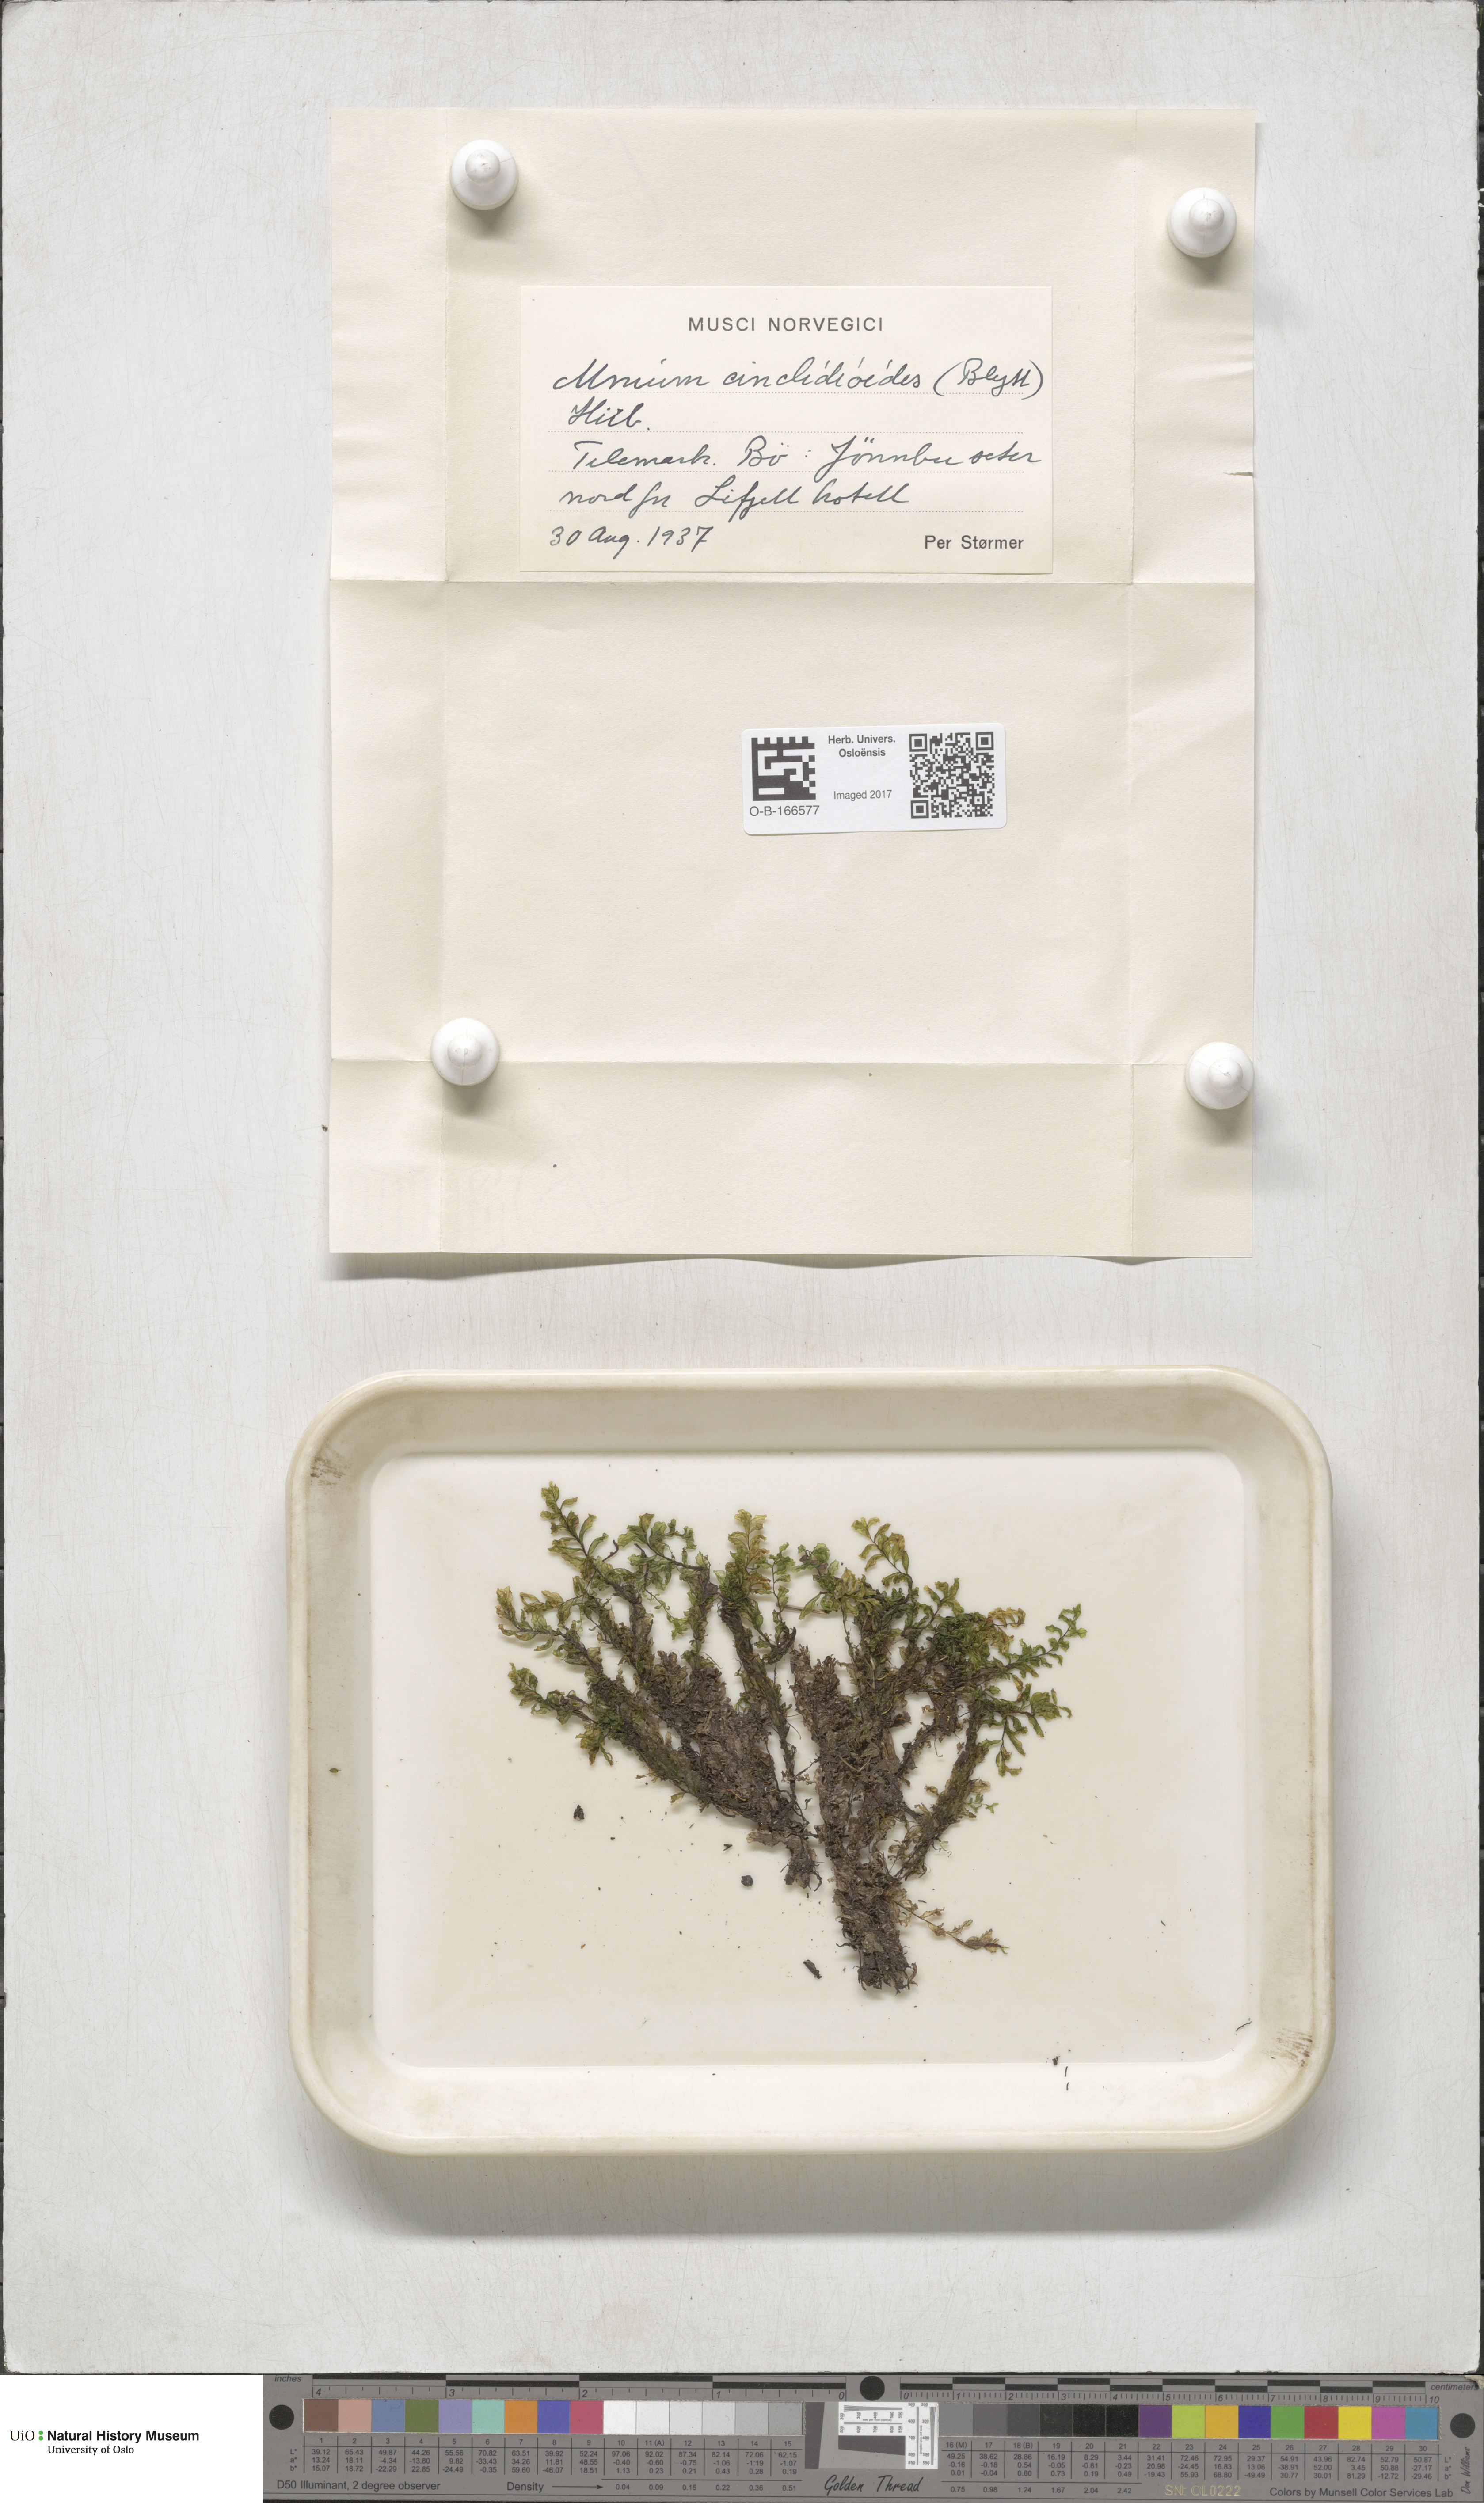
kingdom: Plantae
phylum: Bryophyta
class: Bryopsida
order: Bryales
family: Mniaceae
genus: Pseudobryum
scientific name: Pseudobryum cinclidioides
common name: River thyme moss
